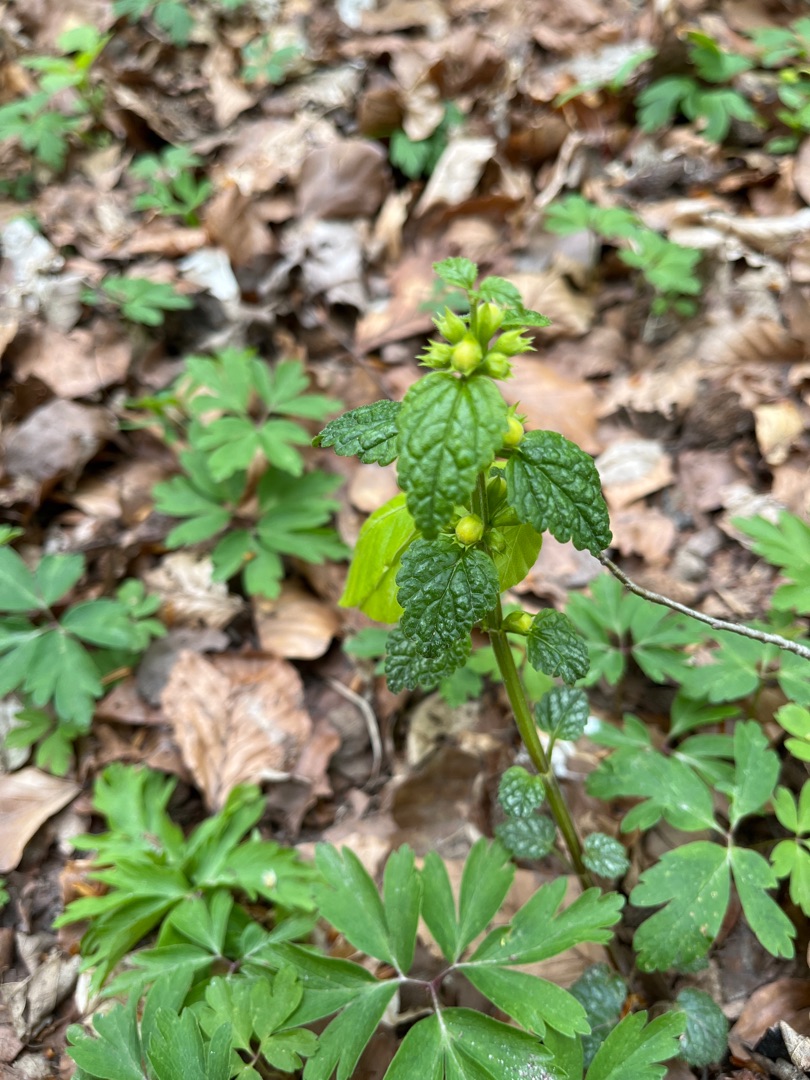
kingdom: Plantae
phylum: Tracheophyta
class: Magnoliopsida
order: Lamiales
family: Lamiaceae
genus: Lamium
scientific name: Lamium galeobdolon
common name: Almindelig guldnælde
